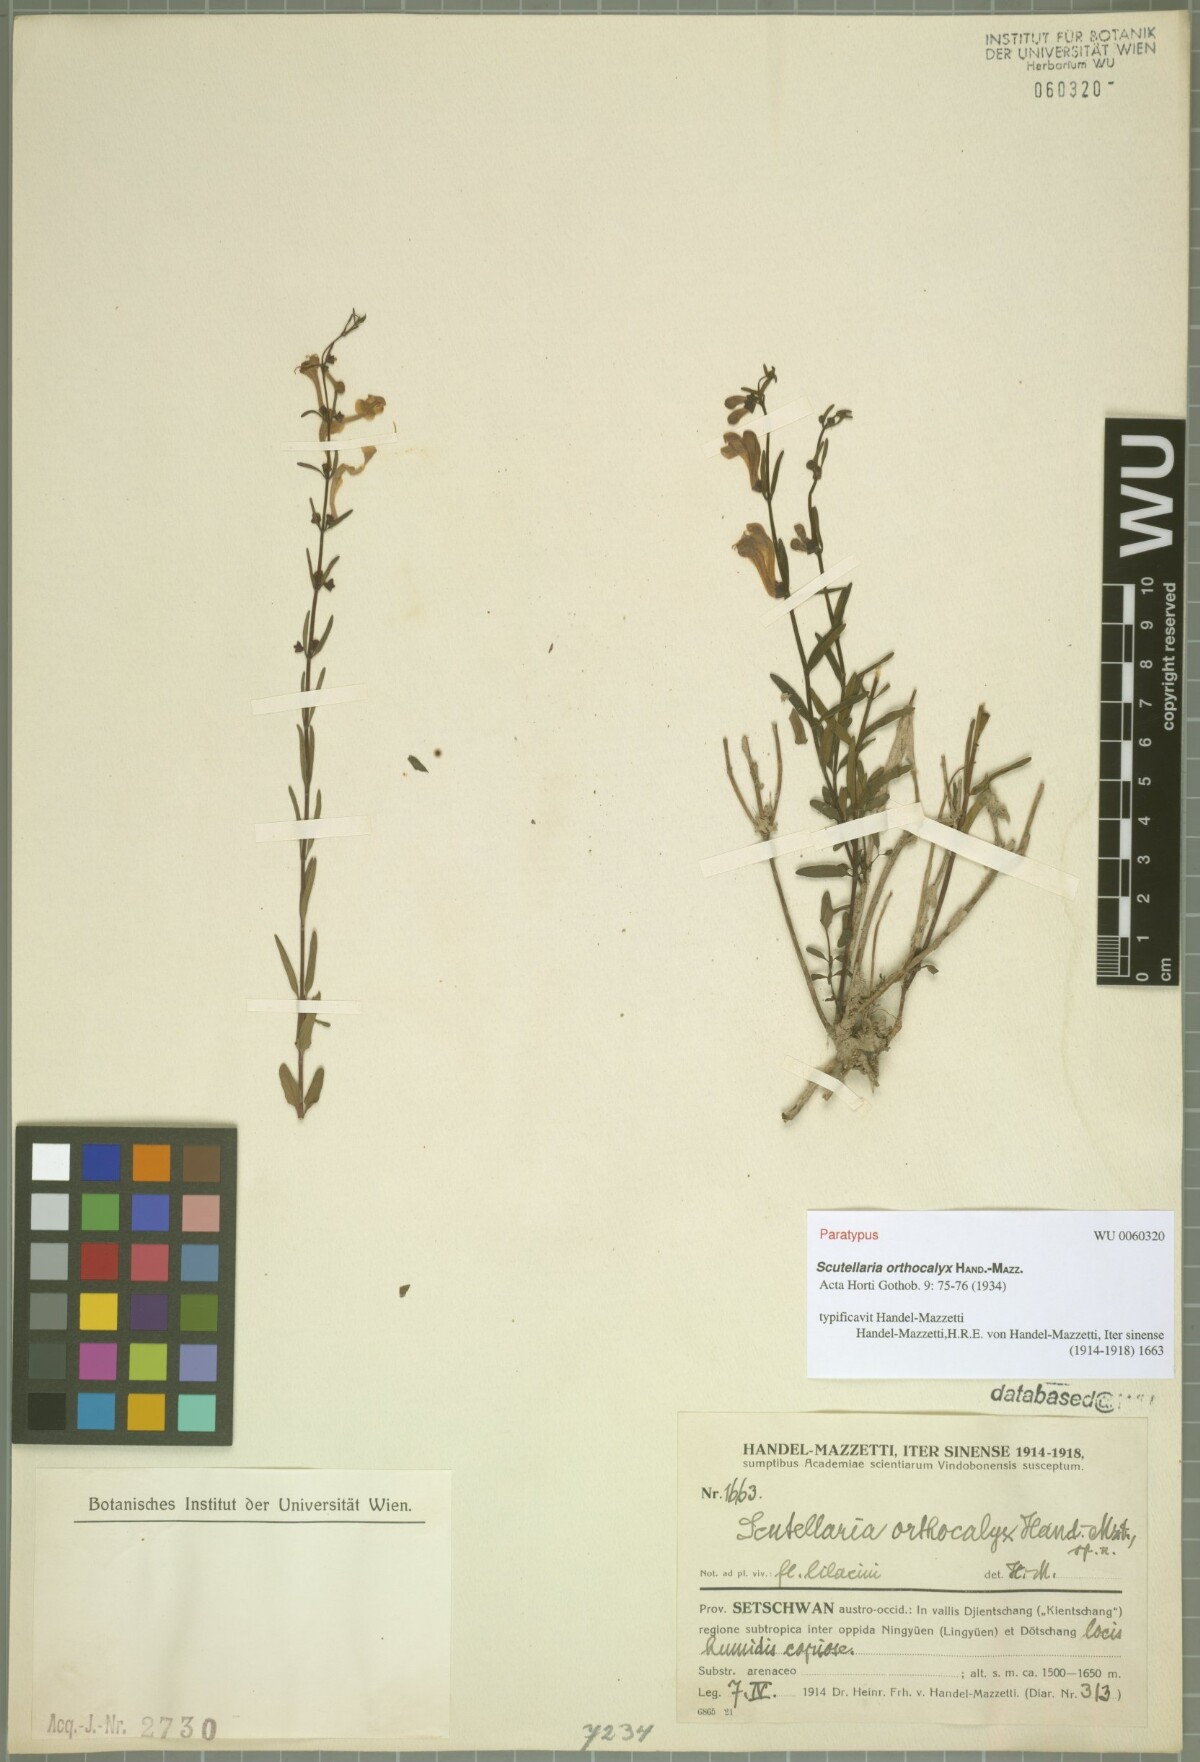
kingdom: Plantae
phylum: Tracheophyta
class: Magnoliopsida
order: Lamiales
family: Lamiaceae
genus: Scutellaria
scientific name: Scutellaria orthocalyx
